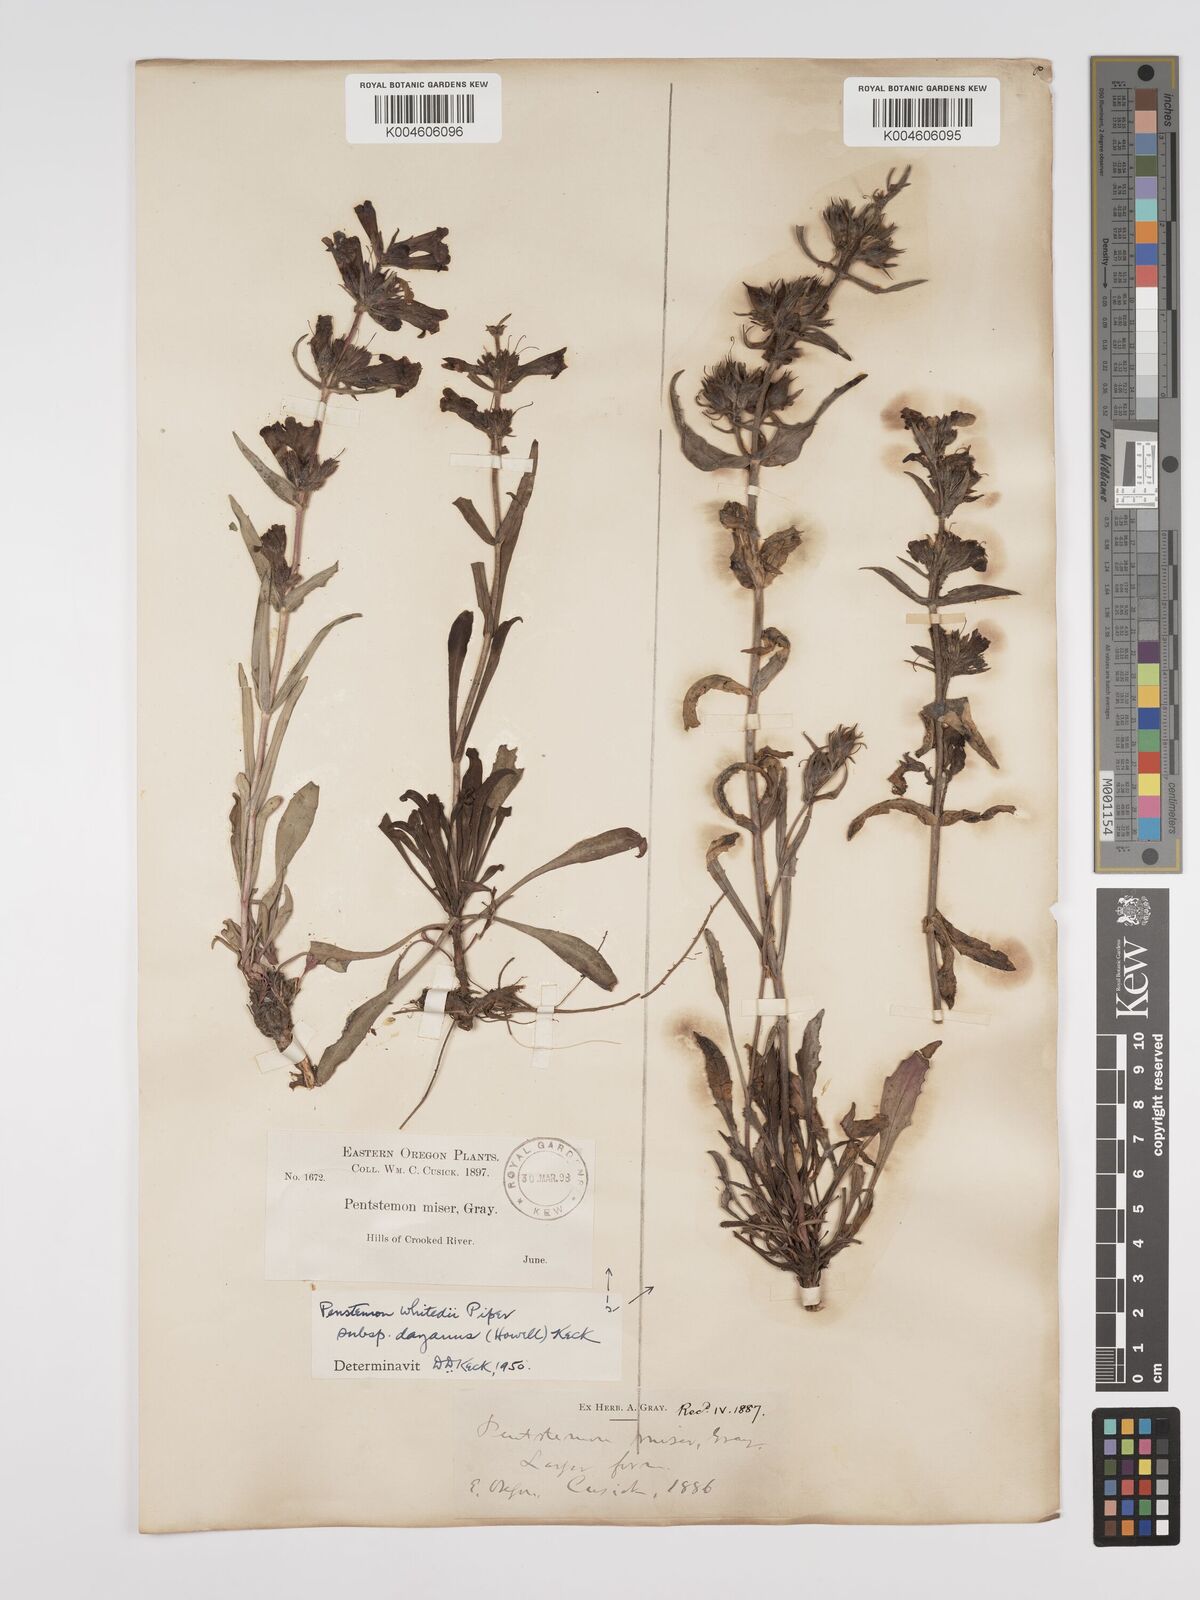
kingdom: Plantae
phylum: Tracheophyta
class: Magnoliopsida
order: Lamiales
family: Plantaginaceae
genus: Penstemon
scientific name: Penstemon eriantherus
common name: Crested beardtongue
